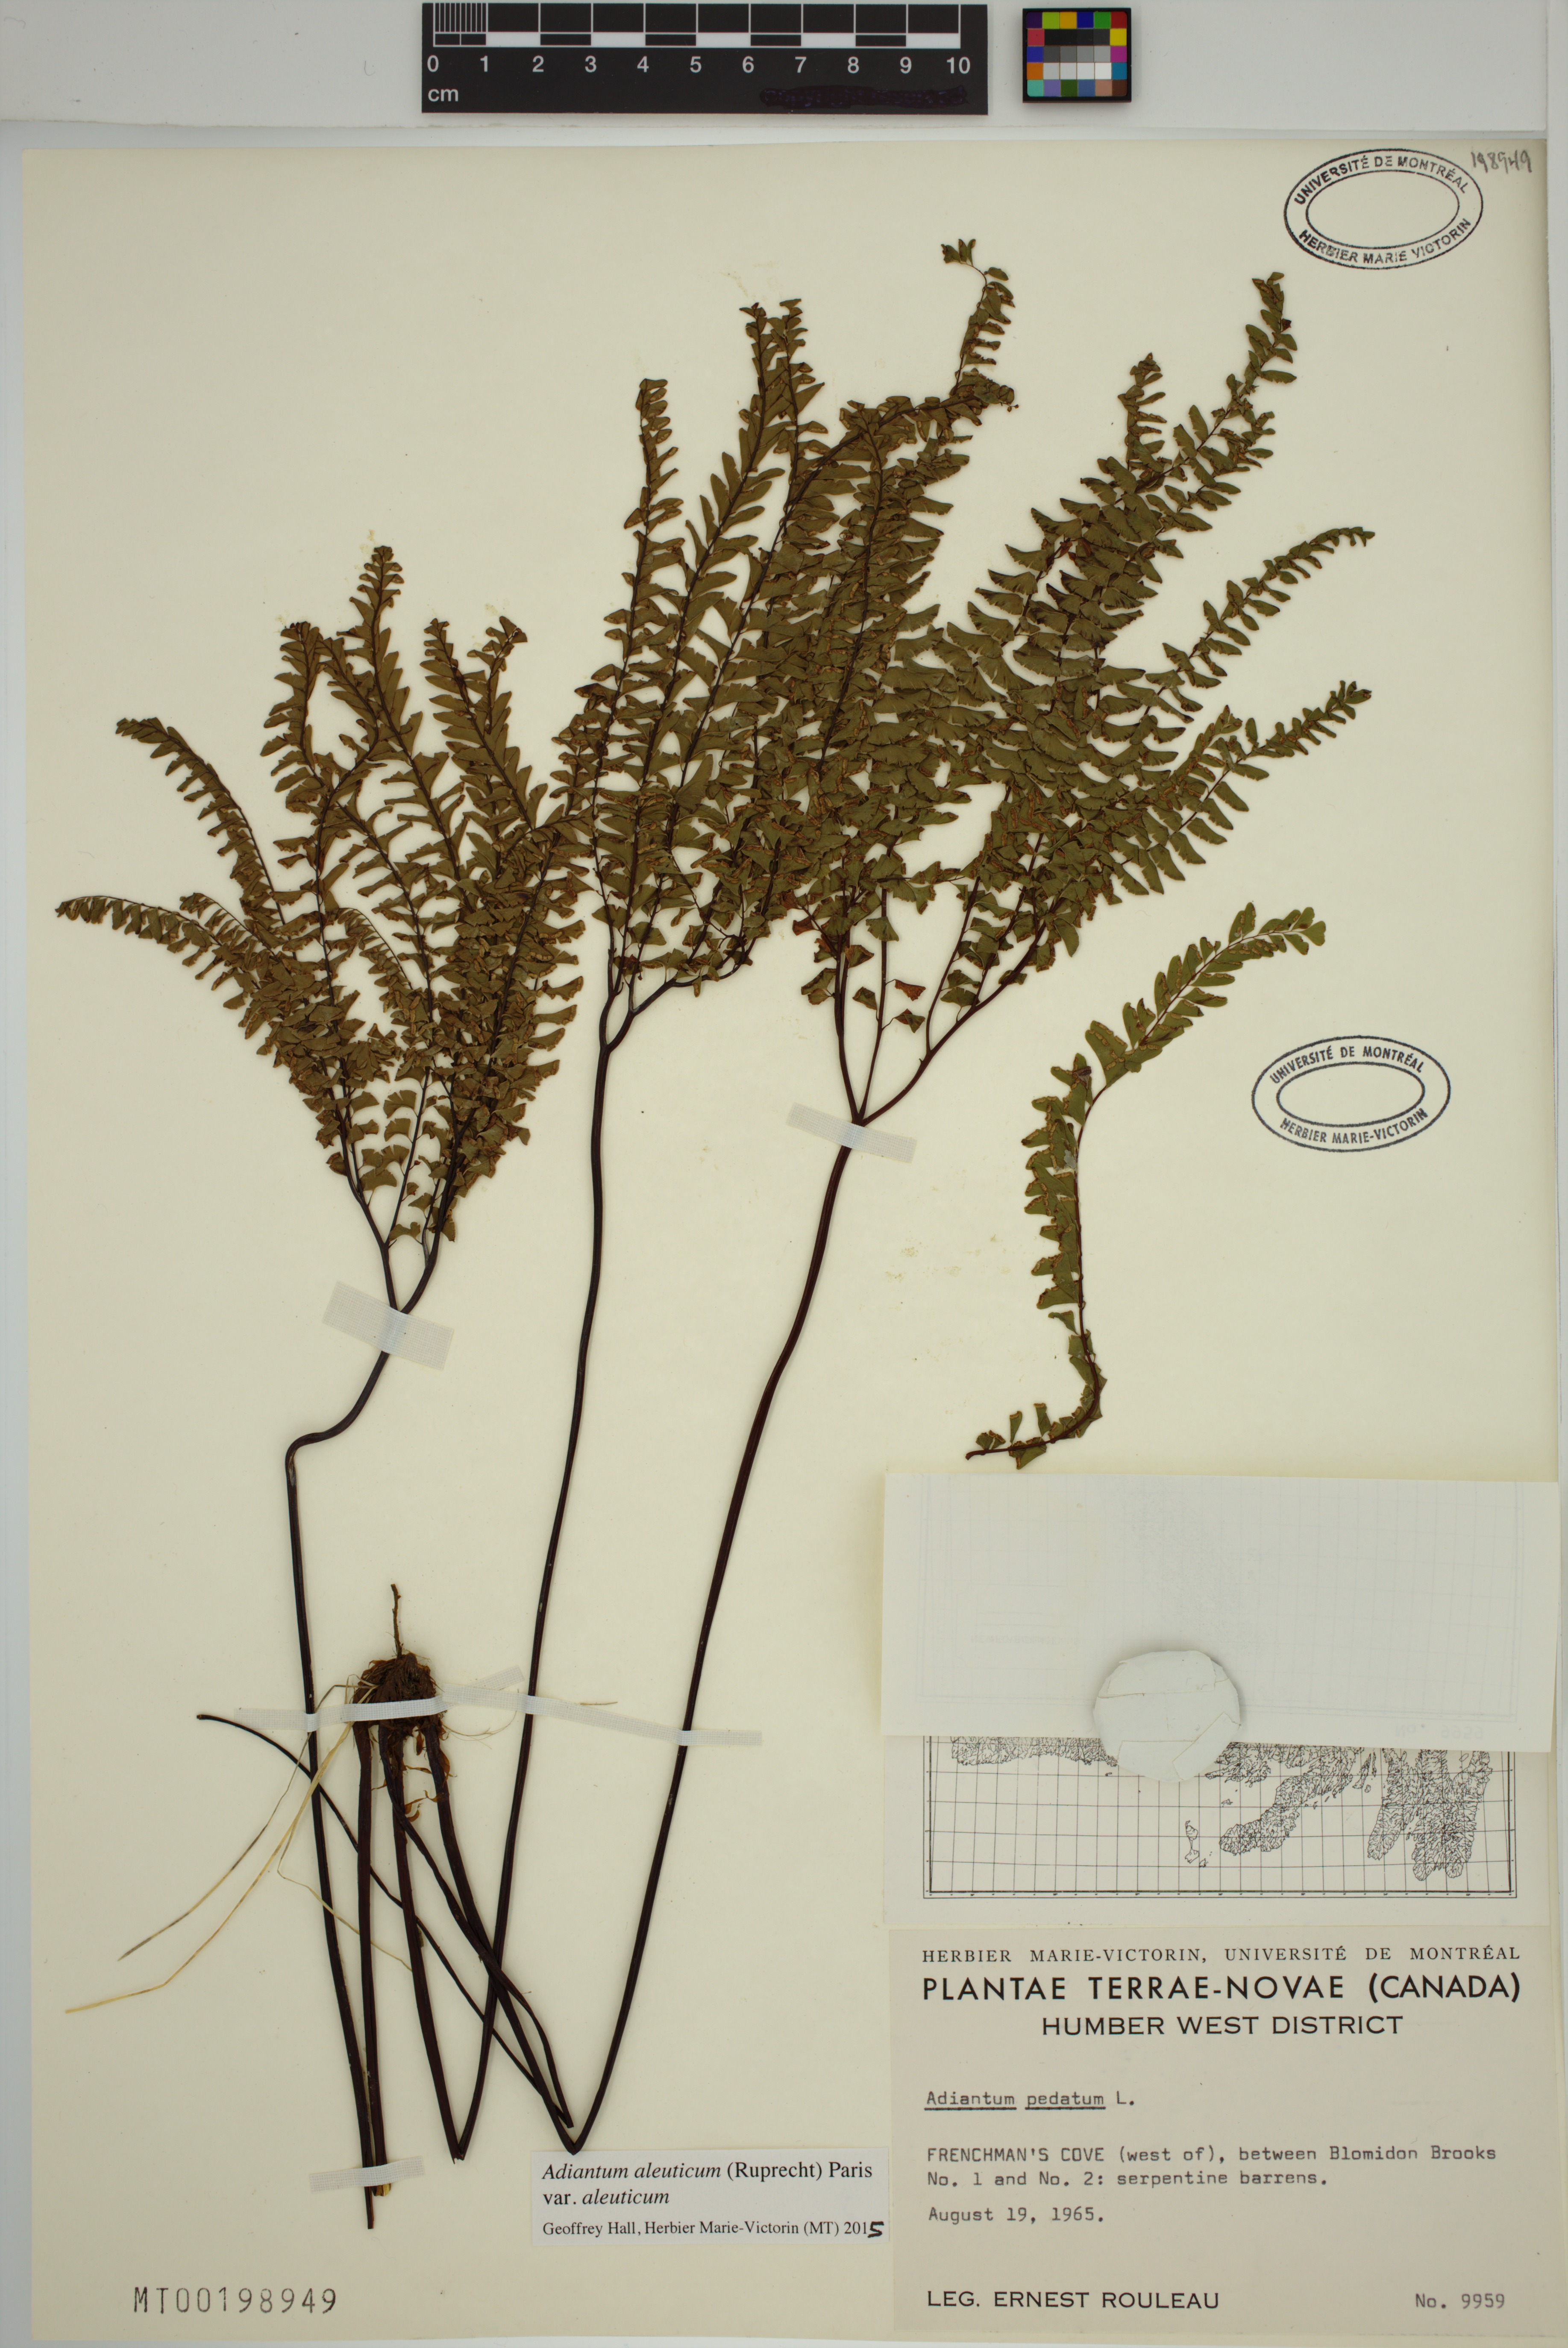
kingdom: Plantae
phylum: Tracheophyta
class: Polypodiopsida
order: Polypodiales
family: Pteridaceae
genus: Adiantum
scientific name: Adiantum aleuticum
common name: Aleutian maidenhair fern
